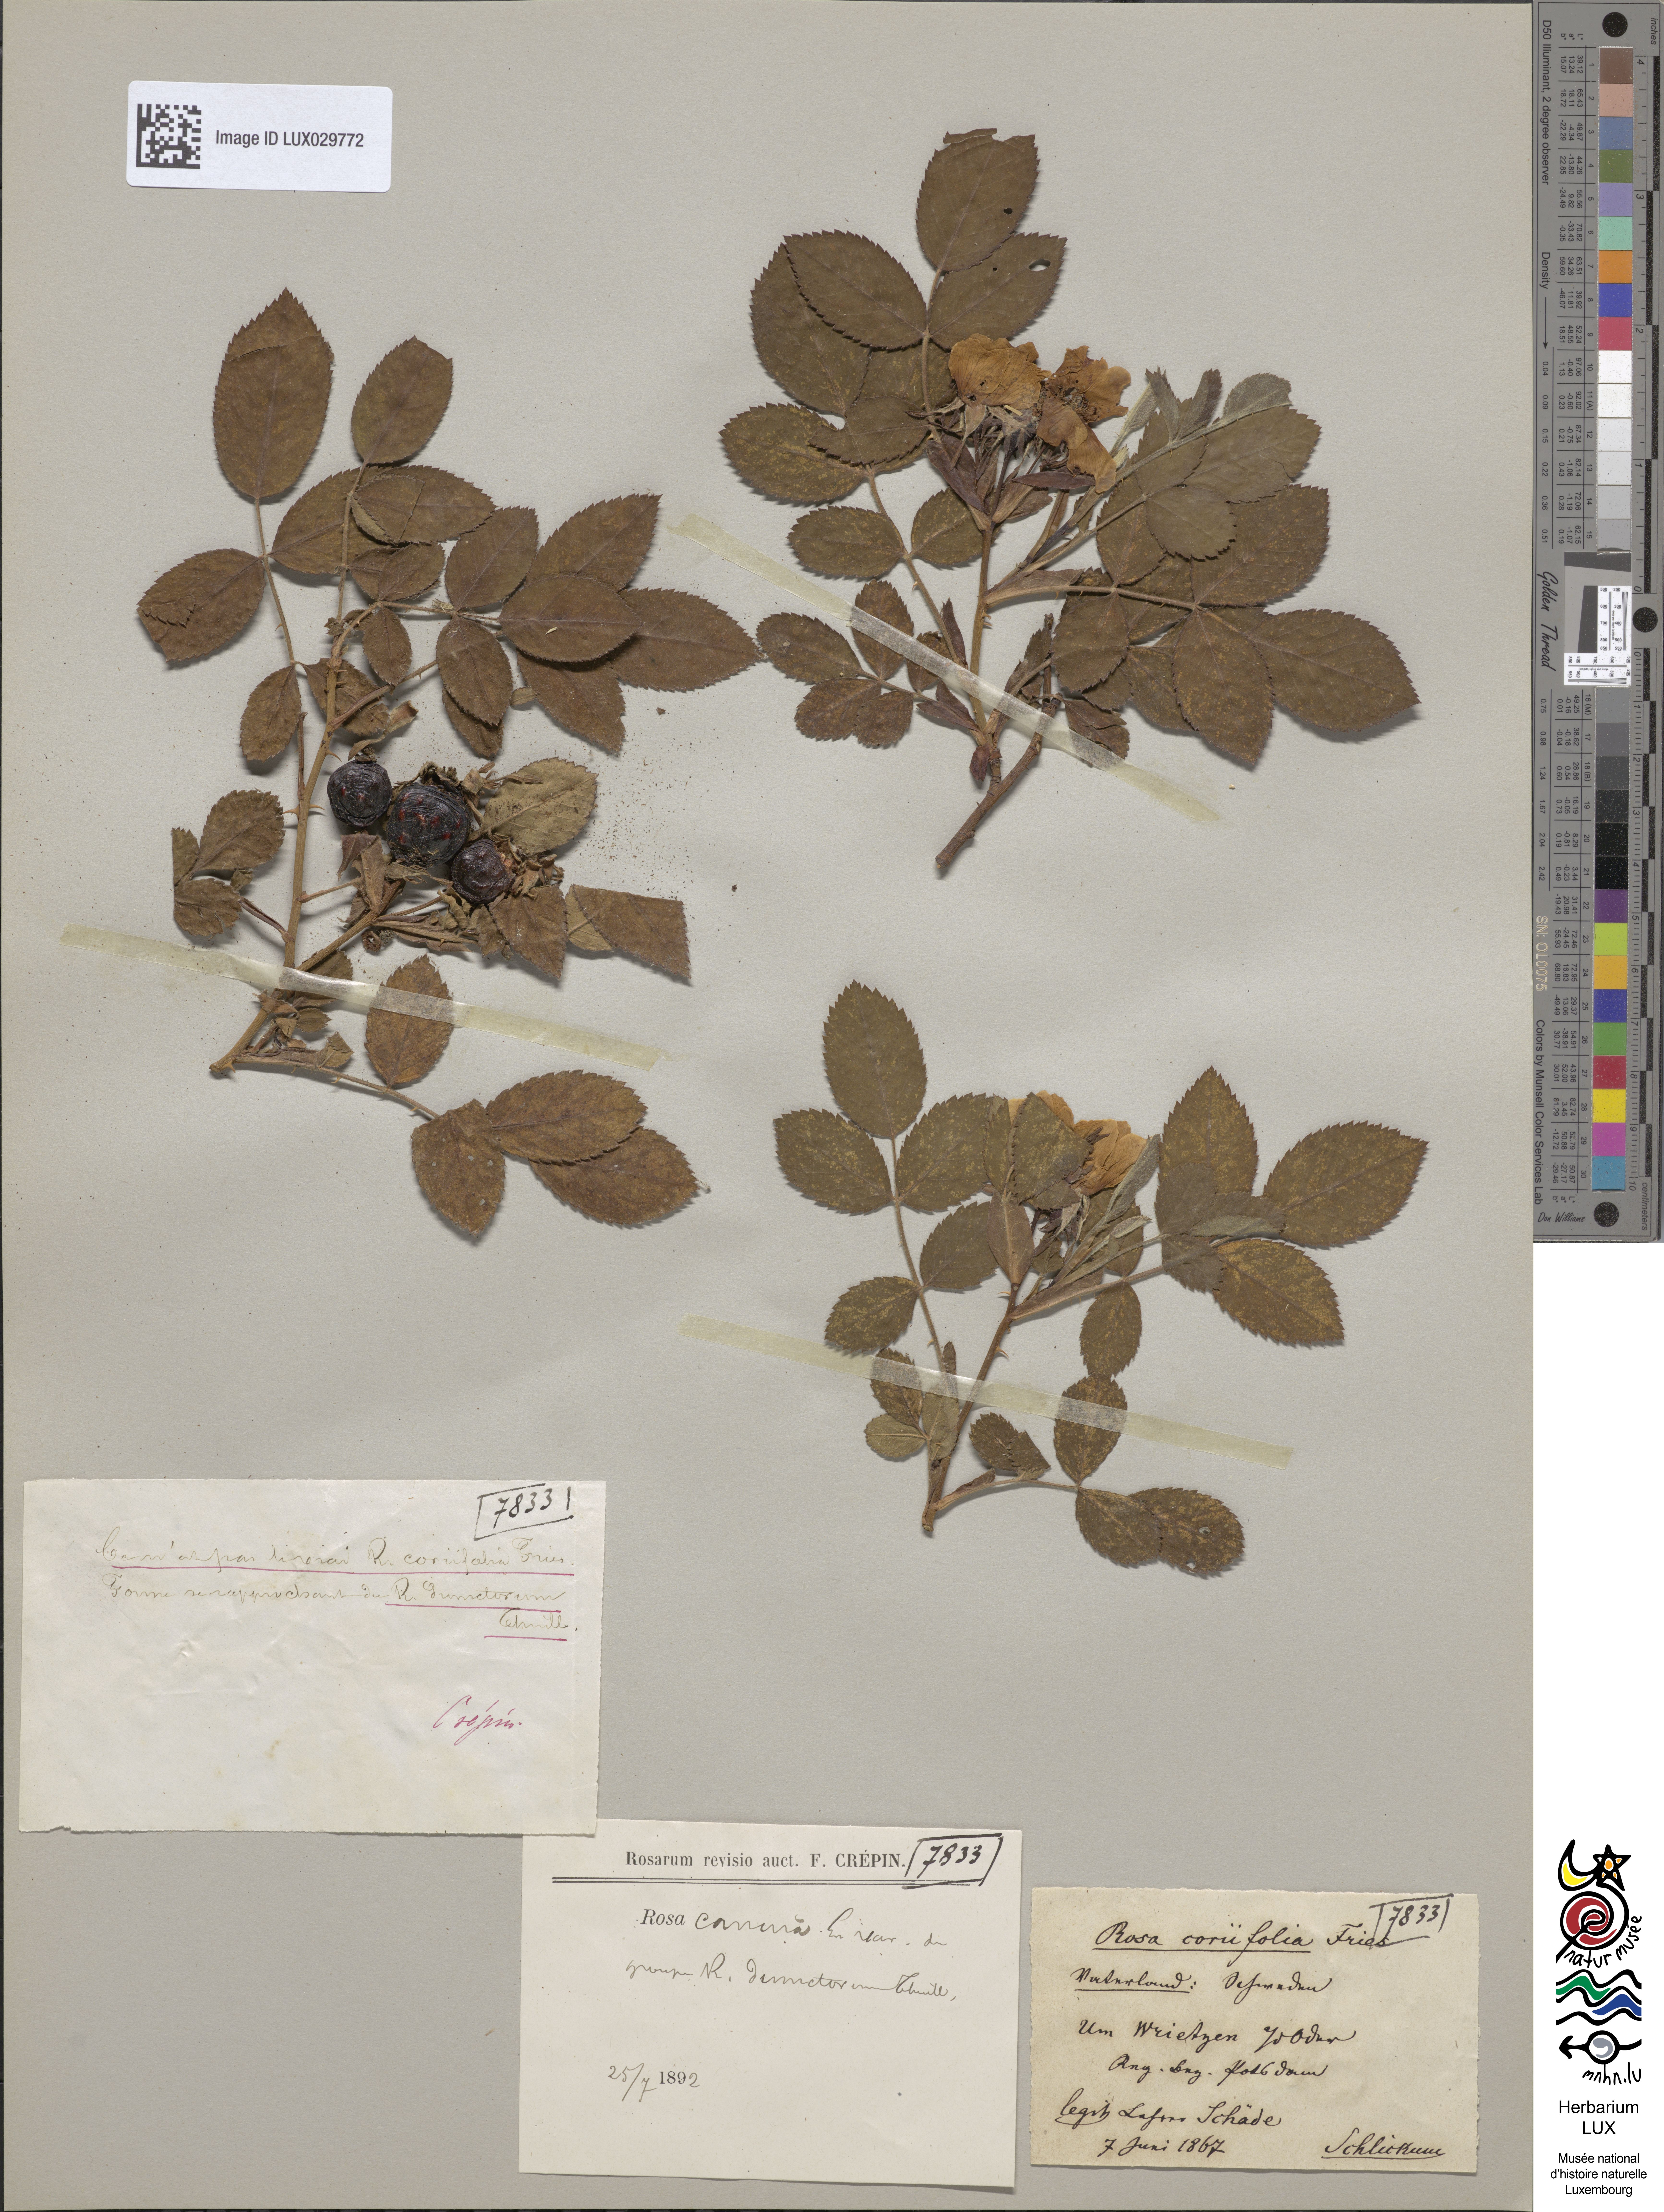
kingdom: Plantae
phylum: Tracheophyta
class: Magnoliopsida
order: Rosales
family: Rosaceae
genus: Rosa
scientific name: Rosa canina
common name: Dog rose
